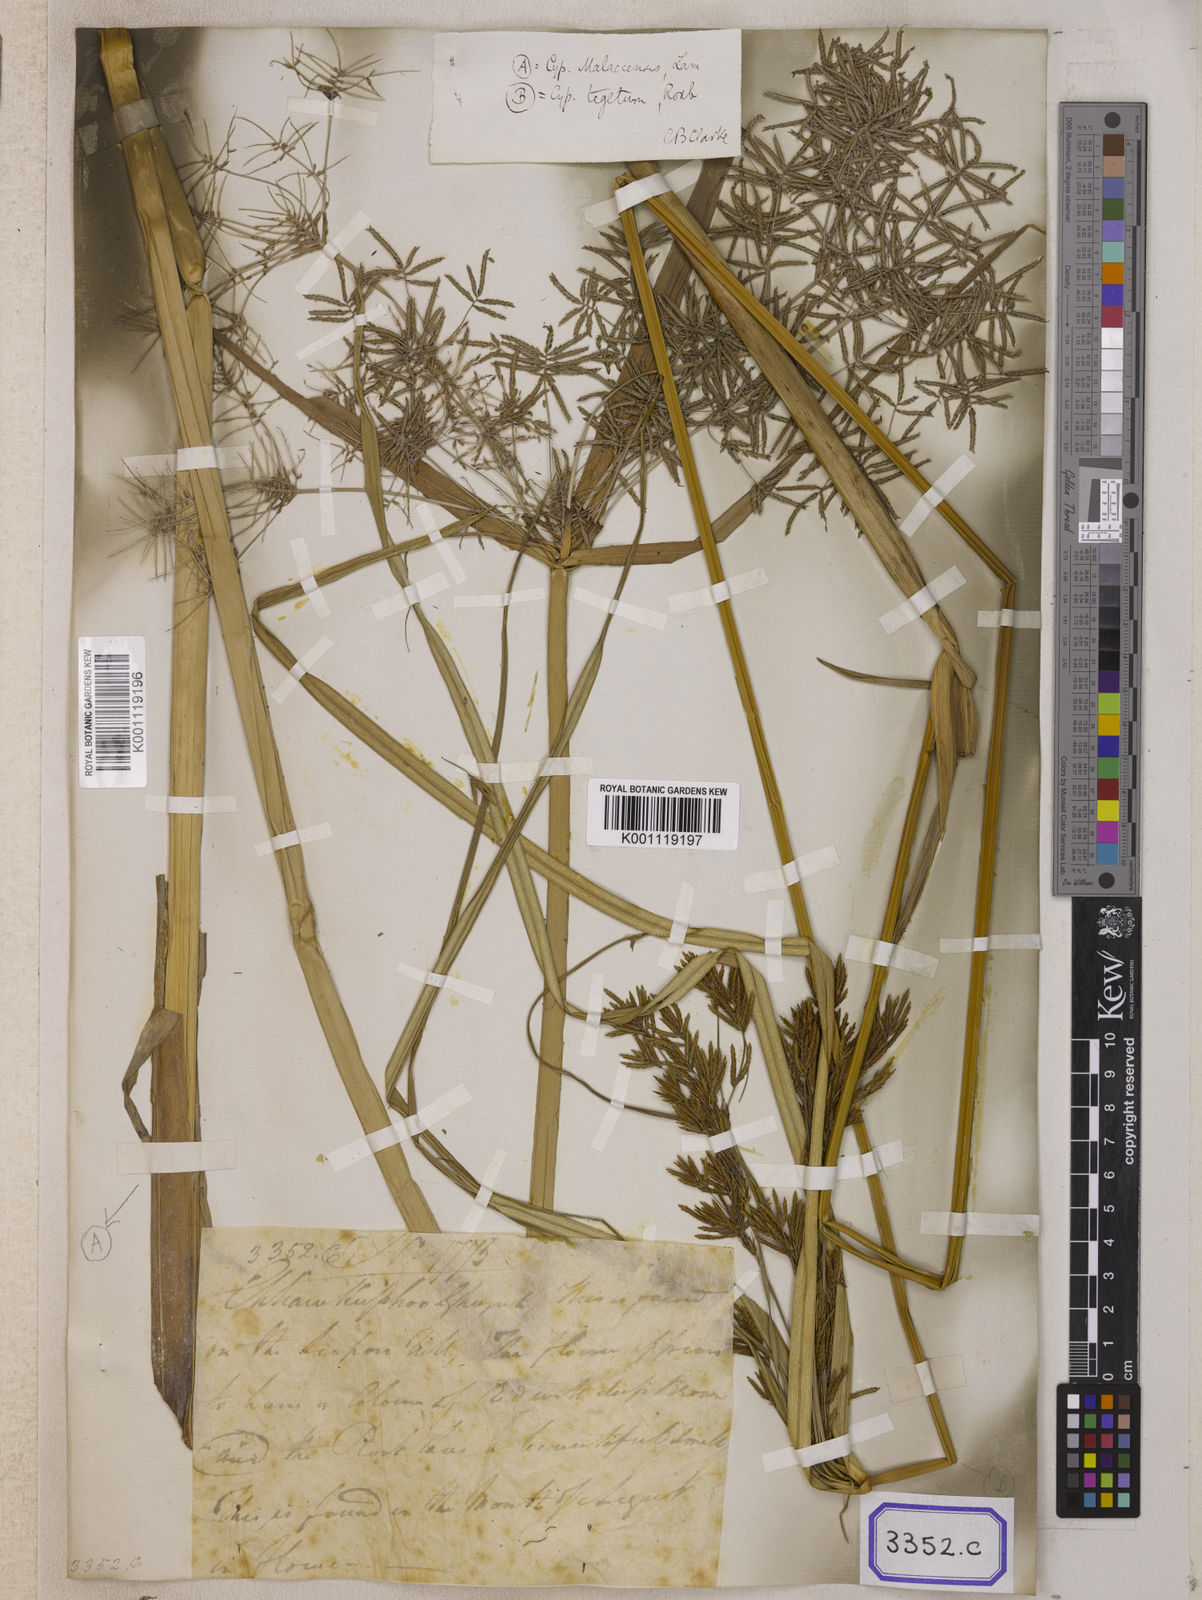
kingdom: Plantae
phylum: Tracheophyta
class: Liliopsida
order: Poales
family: Cyperaceae
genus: Cyperus
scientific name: Cyperus
